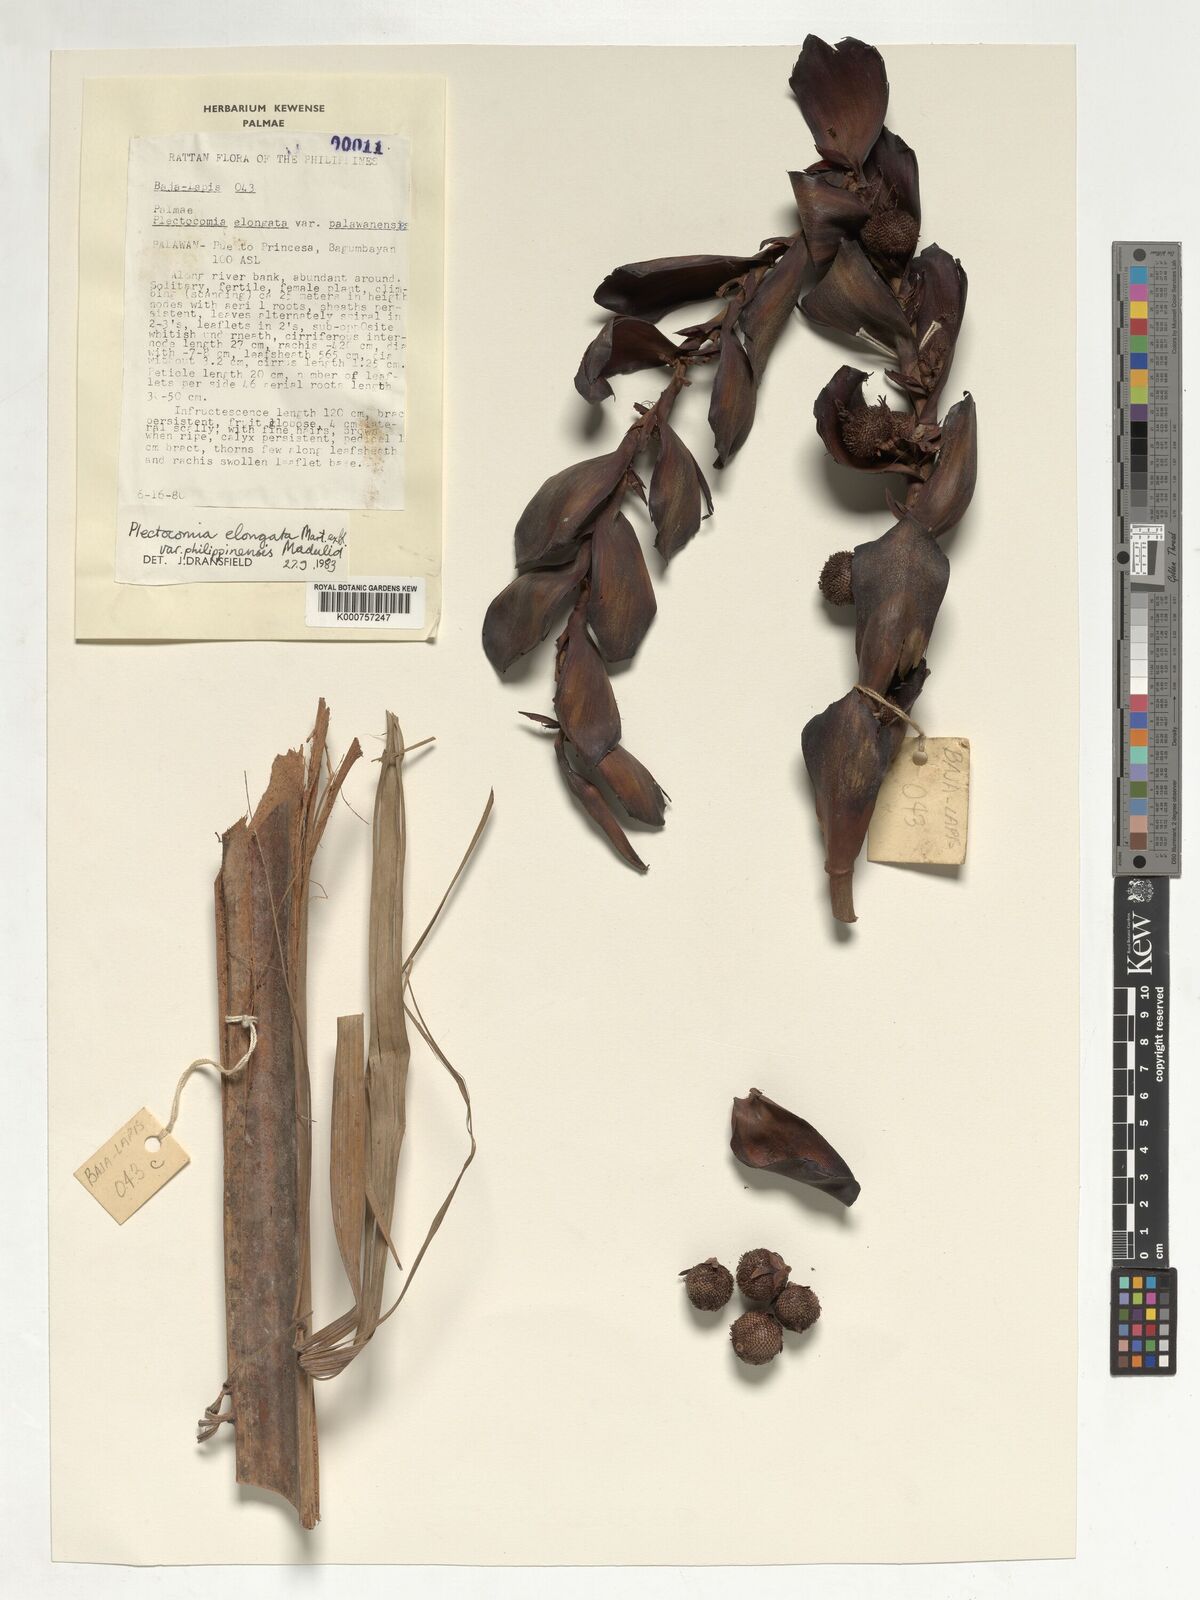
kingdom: Plantae
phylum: Tracheophyta
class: Liliopsida
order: Arecales
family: Arecaceae
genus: Plectocomia
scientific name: Plectocomia elongata
